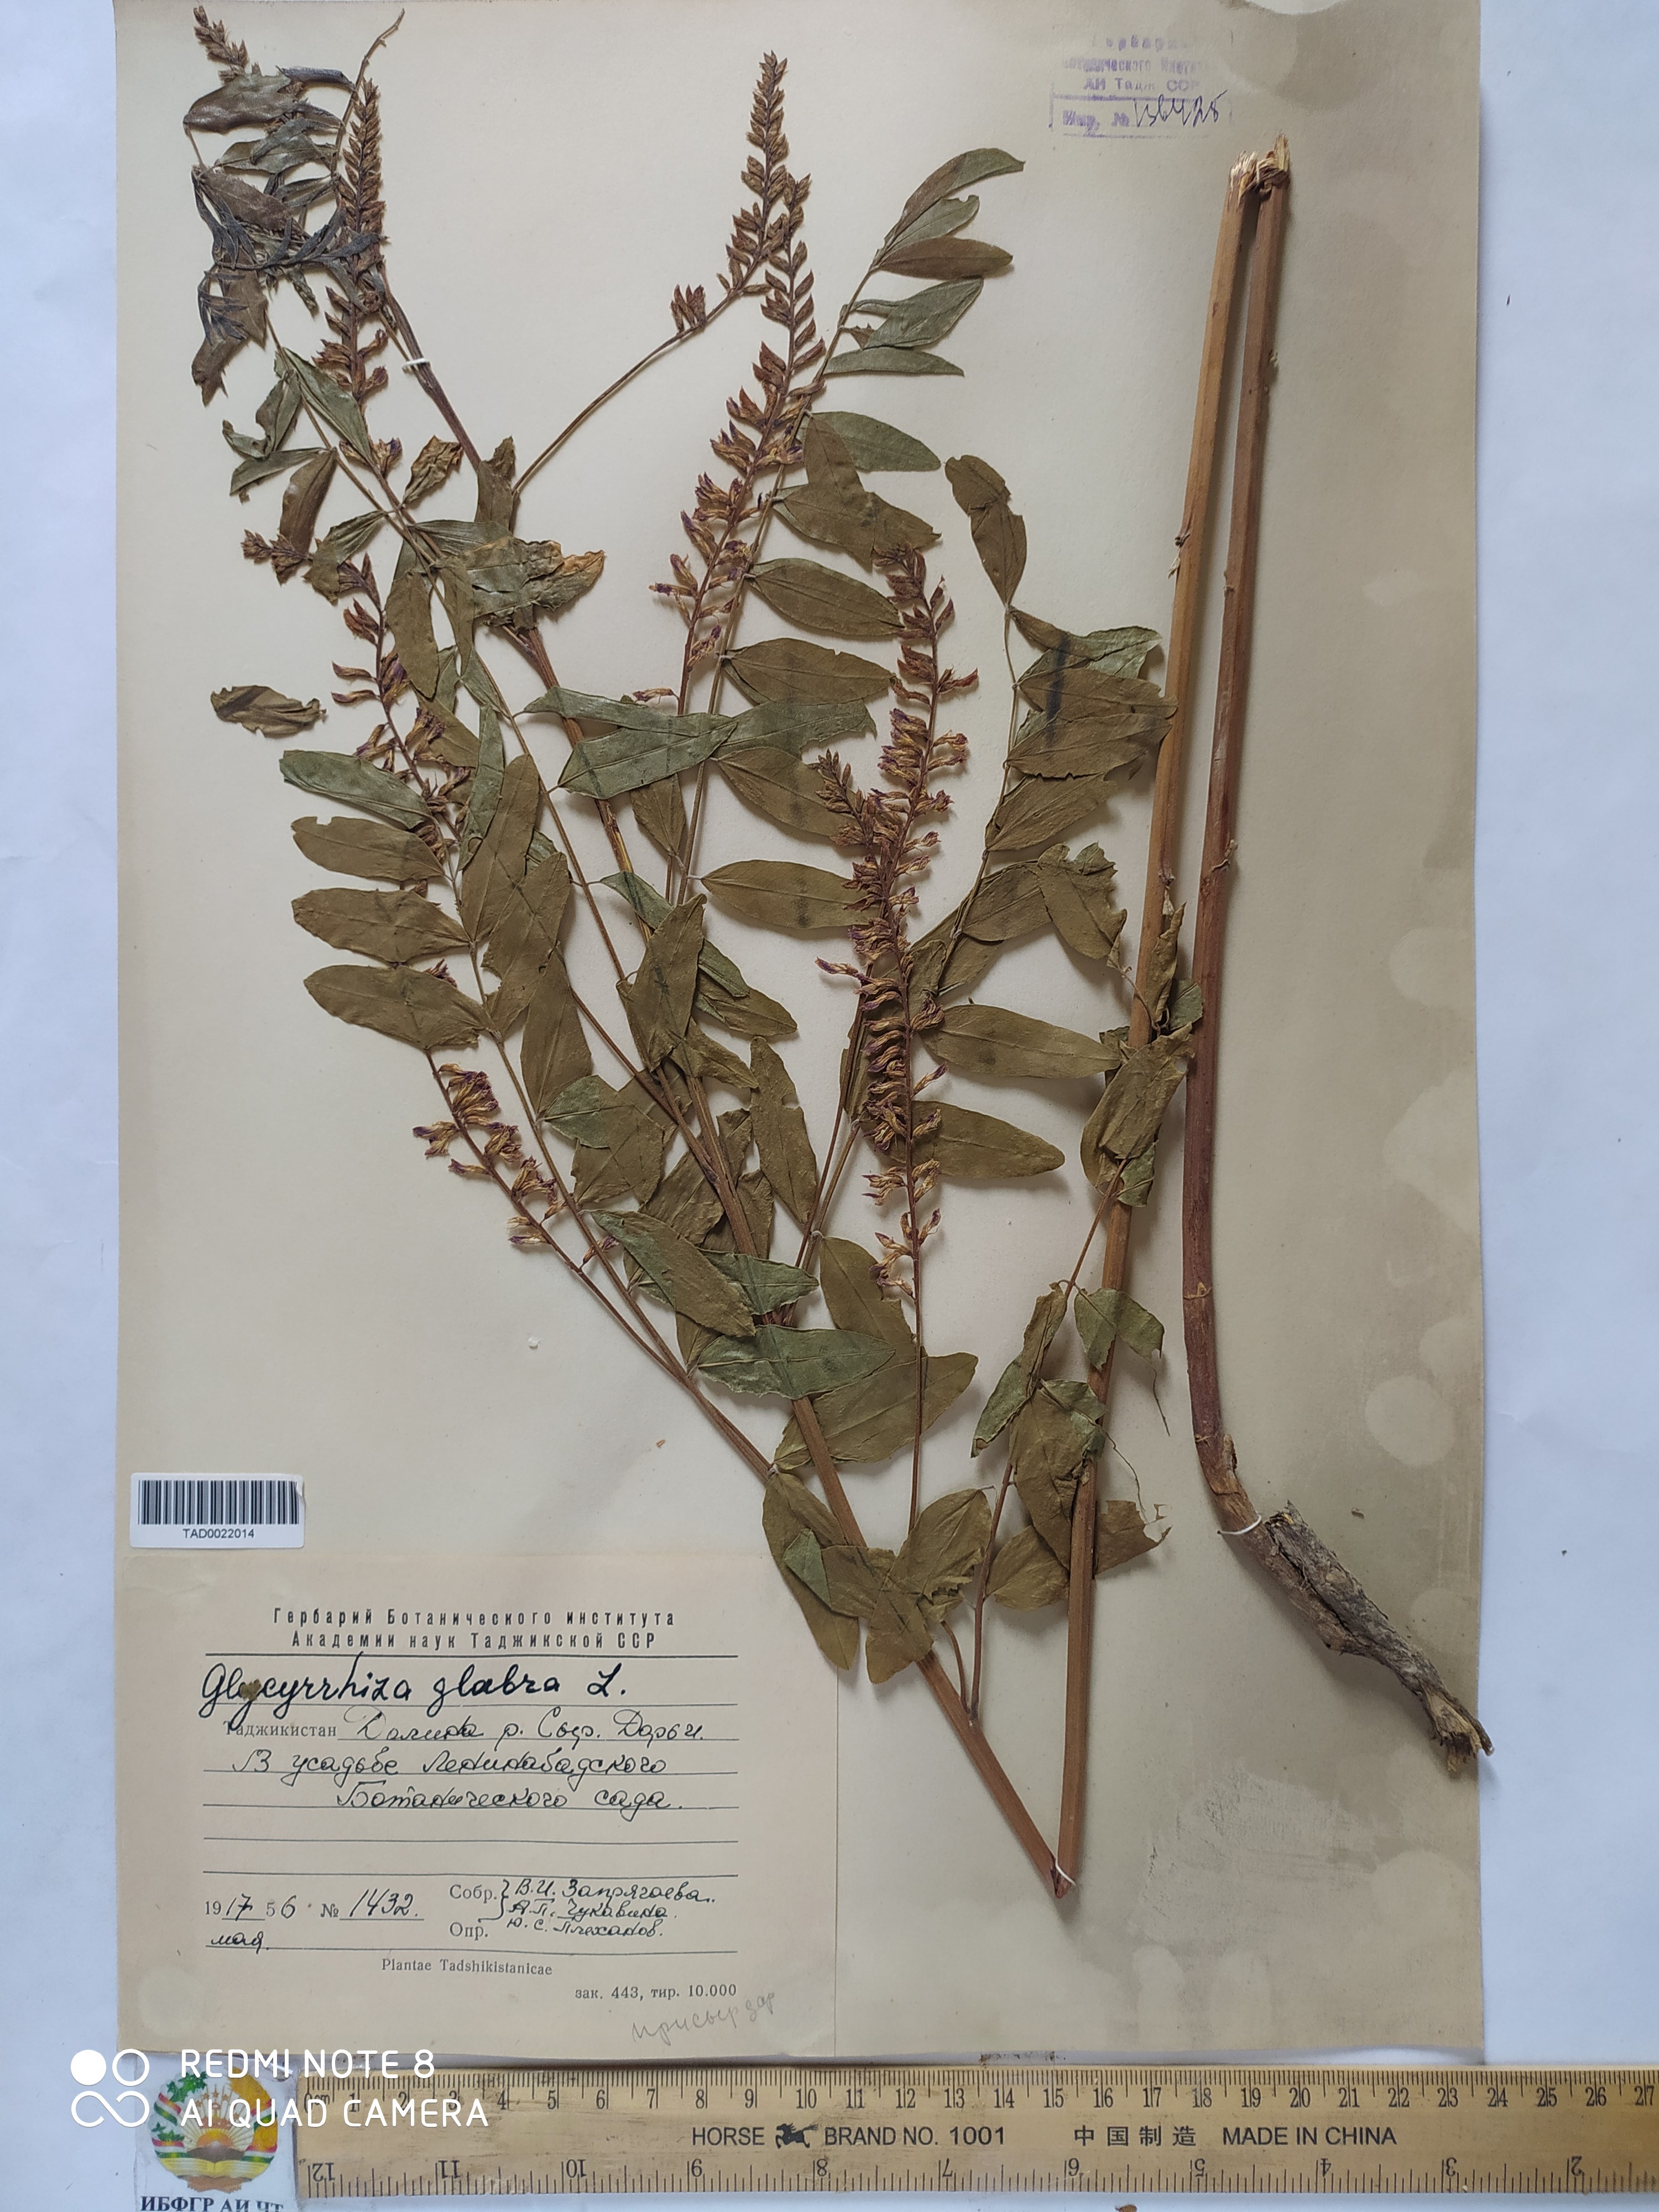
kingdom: Plantae
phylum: Tracheophyta
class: Magnoliopsida
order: Fabales
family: Fabaceae
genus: Glycyrrhiza
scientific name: Glycyrrhiza glabra
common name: Liquorice
